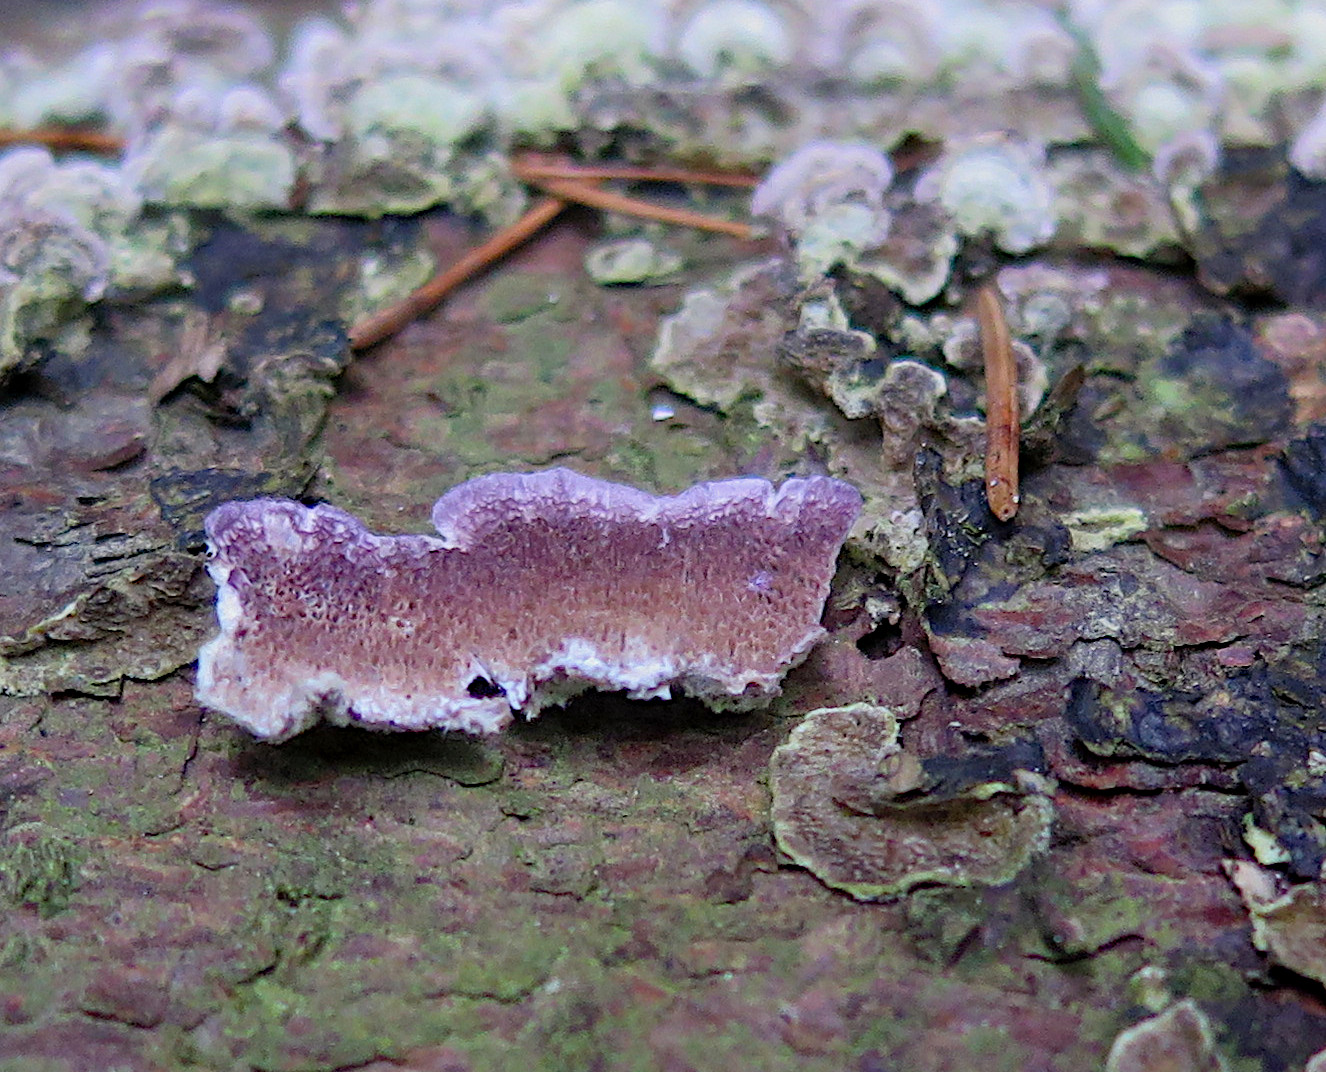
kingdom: Fungi
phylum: Basidiomycota
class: Agaricomycetes
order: Hymenochaetales
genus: Trichaptum
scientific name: Trichaptum abietinum
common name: almindelig violporesvamp
